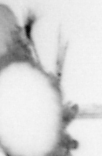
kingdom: Animalia
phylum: Arthropoda
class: Copepoda
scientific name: Copepoda
